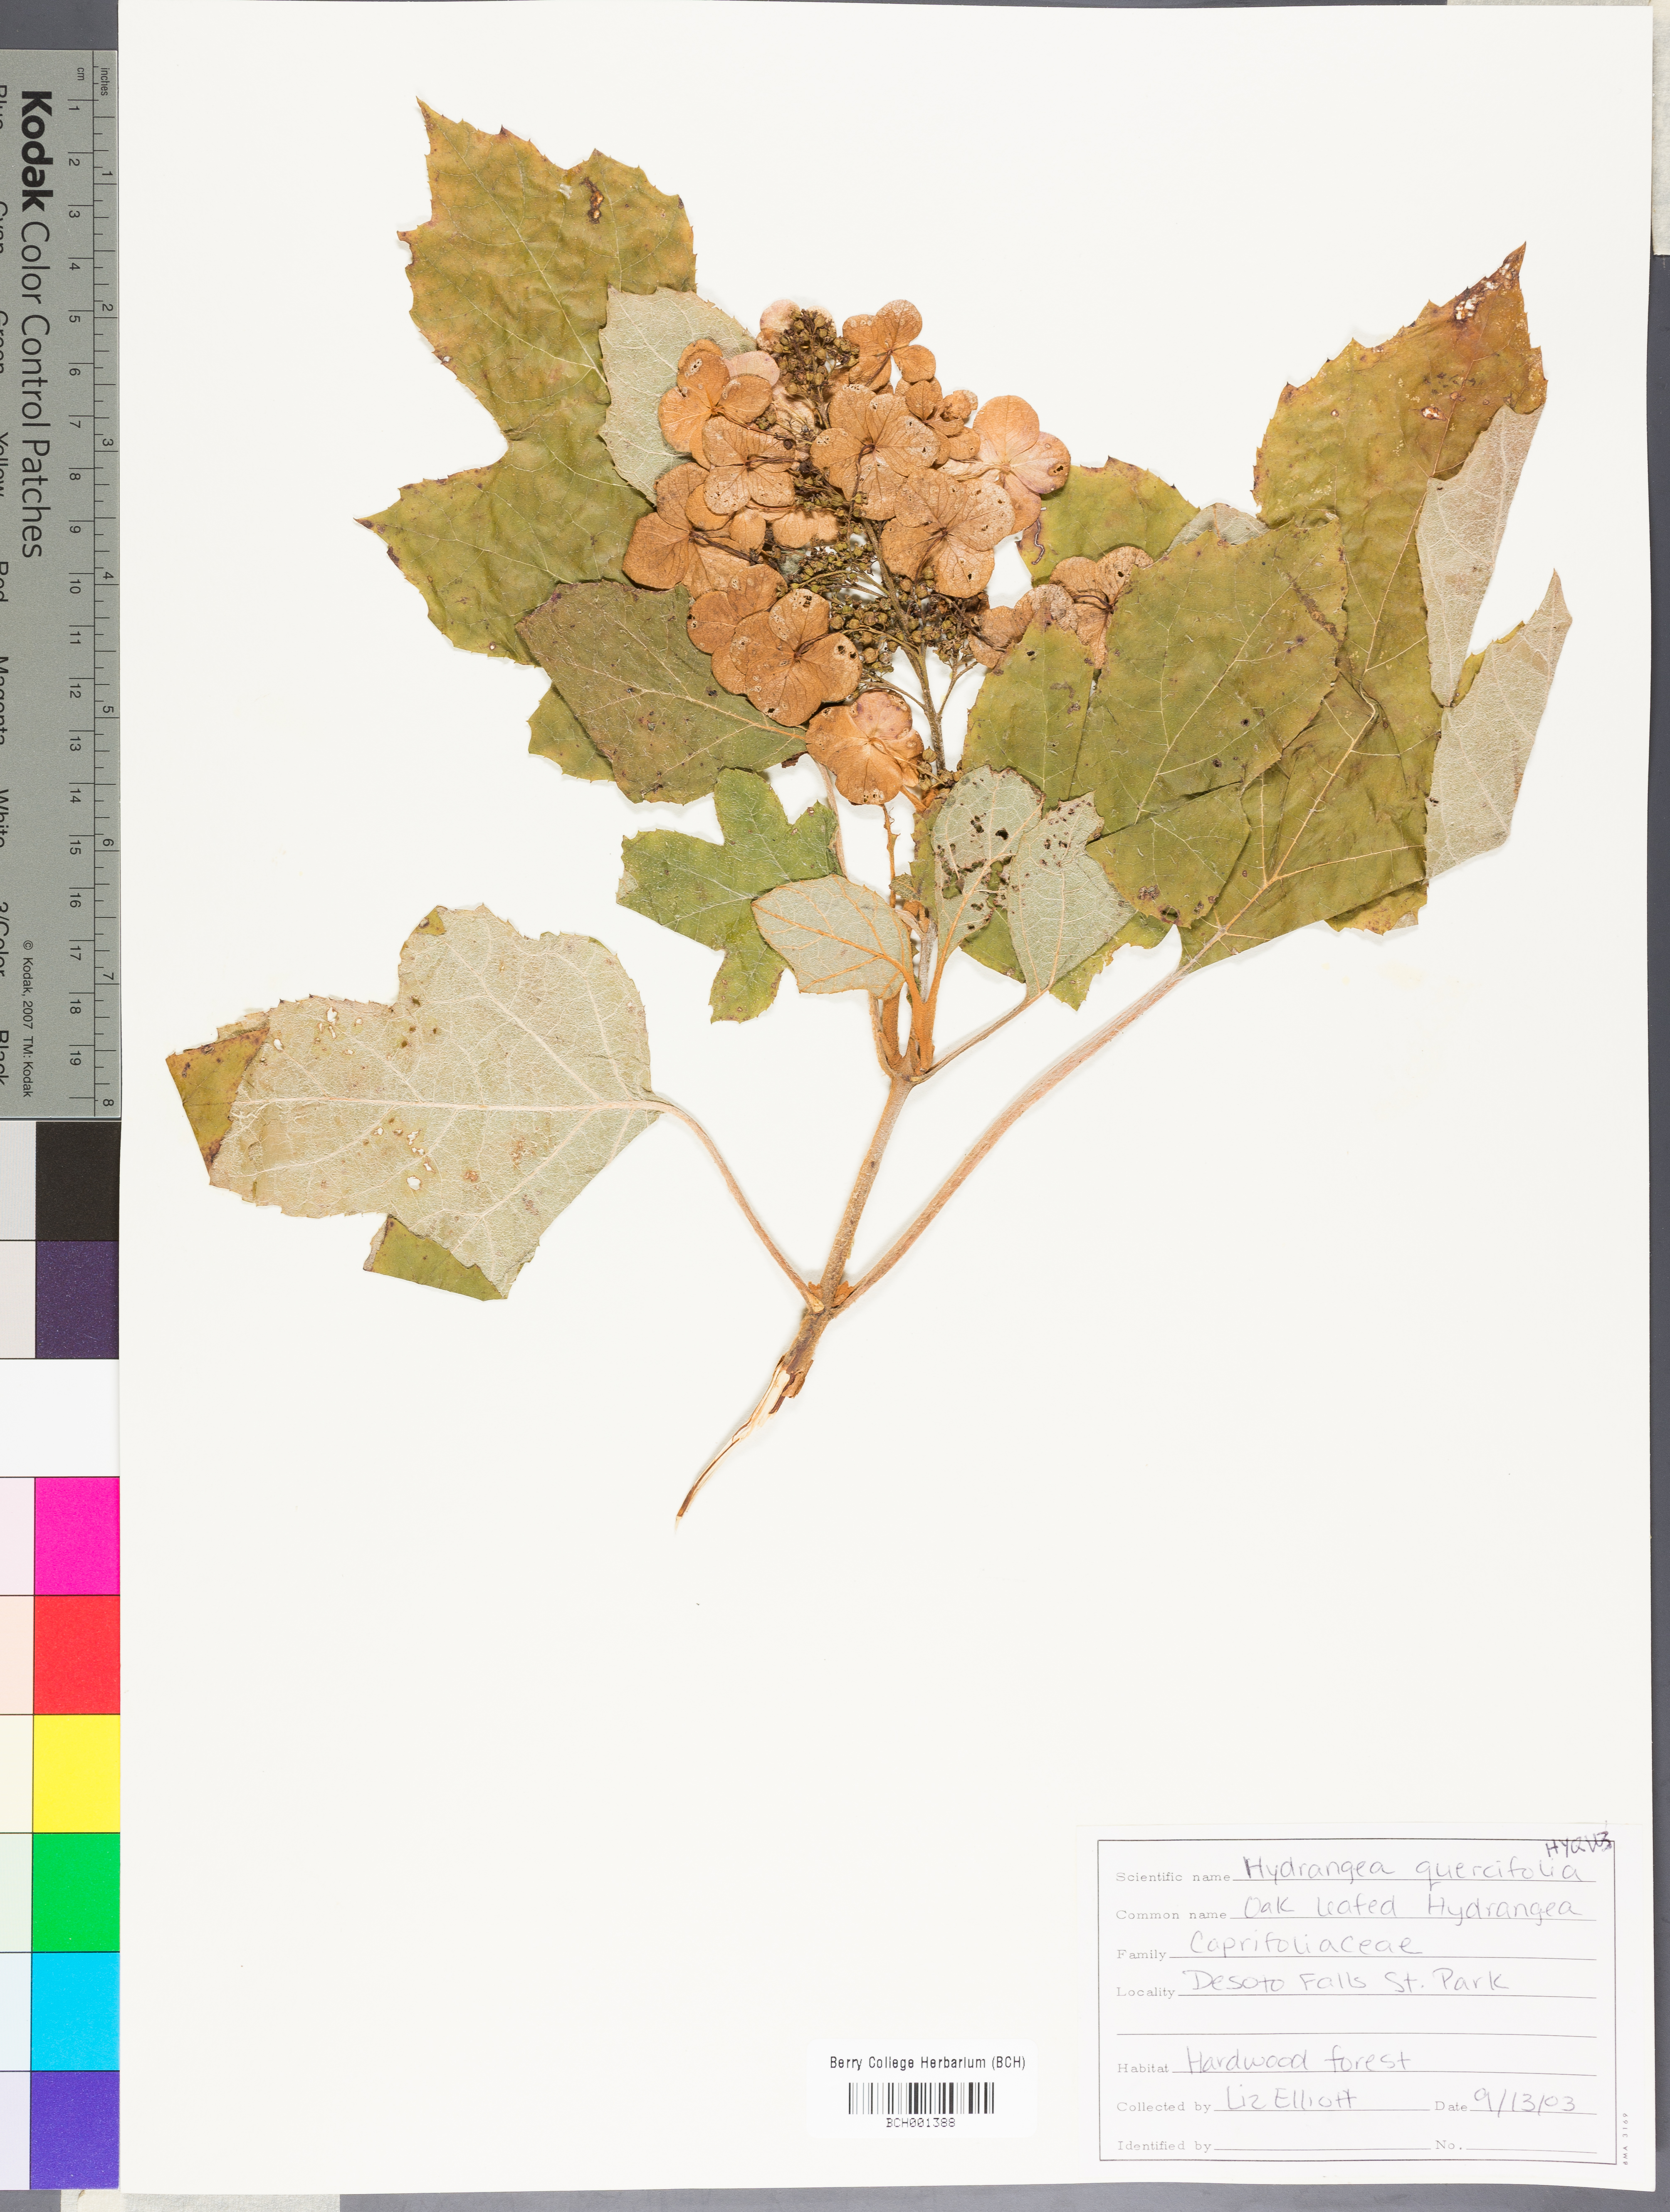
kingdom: Plantae
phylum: Tracheophyta
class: Magnoliopsida
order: Cornales
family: Hydrangeaceae
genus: Hydrangea
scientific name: Hydrangea quercifolia
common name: Oak-leaf hydrangea
